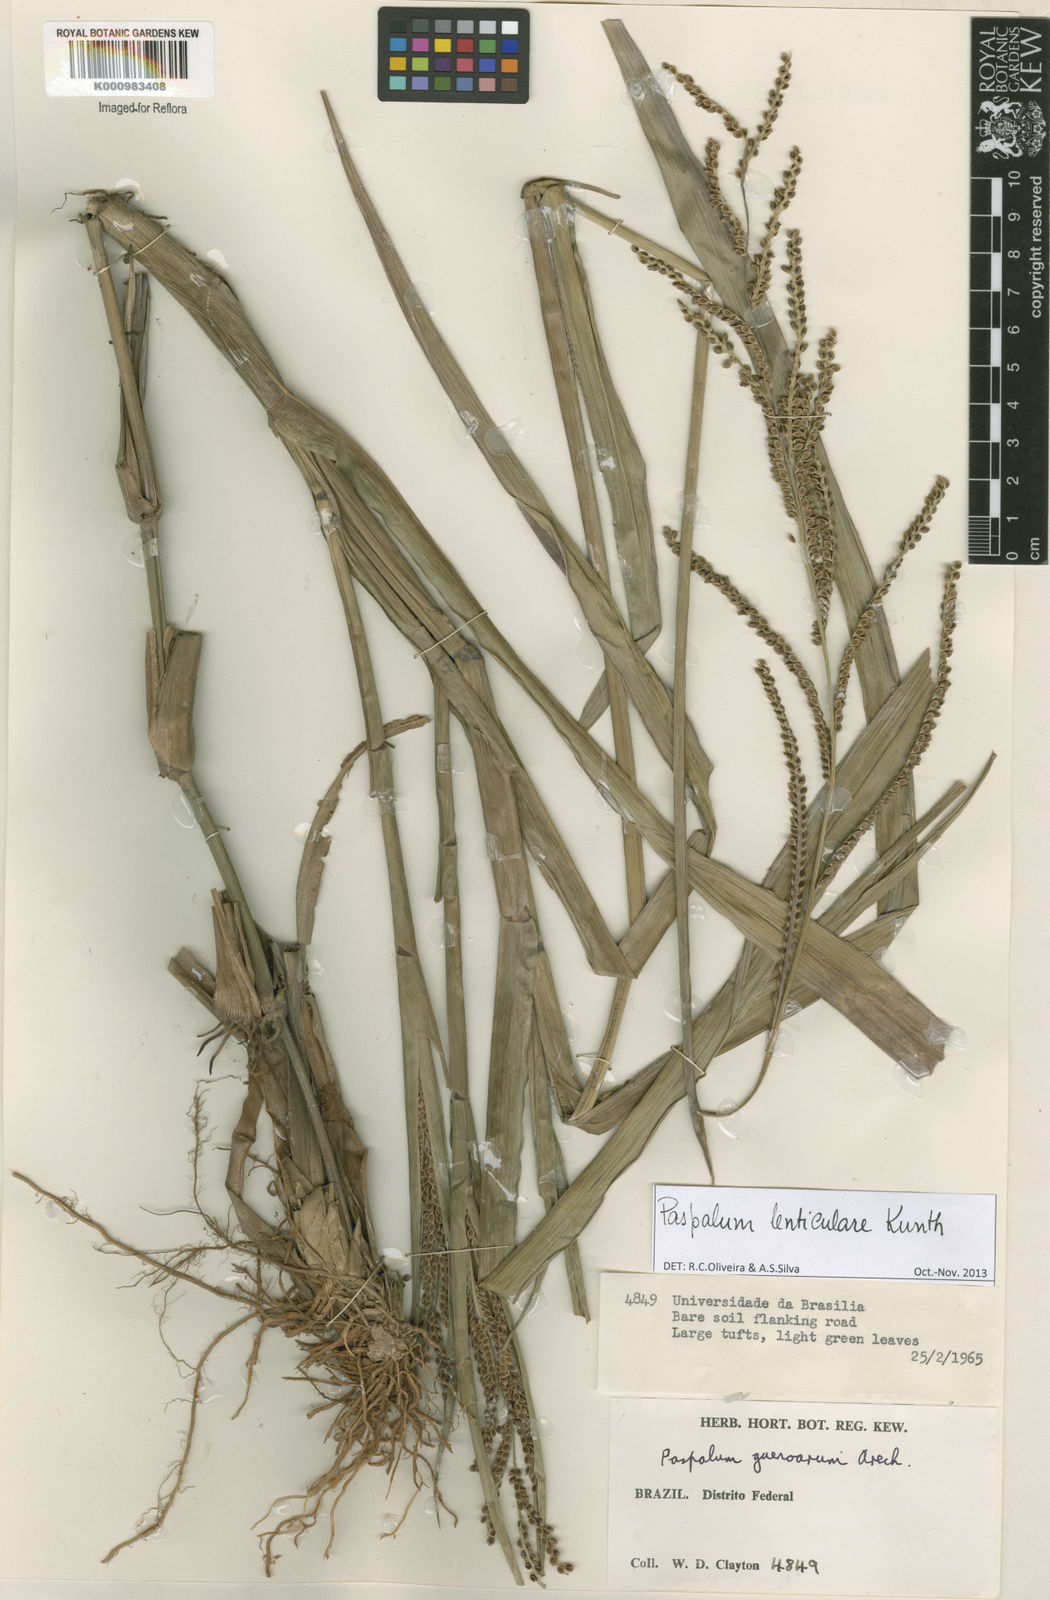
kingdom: Plantae
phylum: Tracheophyta
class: Liliopsida
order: Poales
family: Poaceae
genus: Paspalum
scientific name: Paspalum plicatulum
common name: Top paspalum
